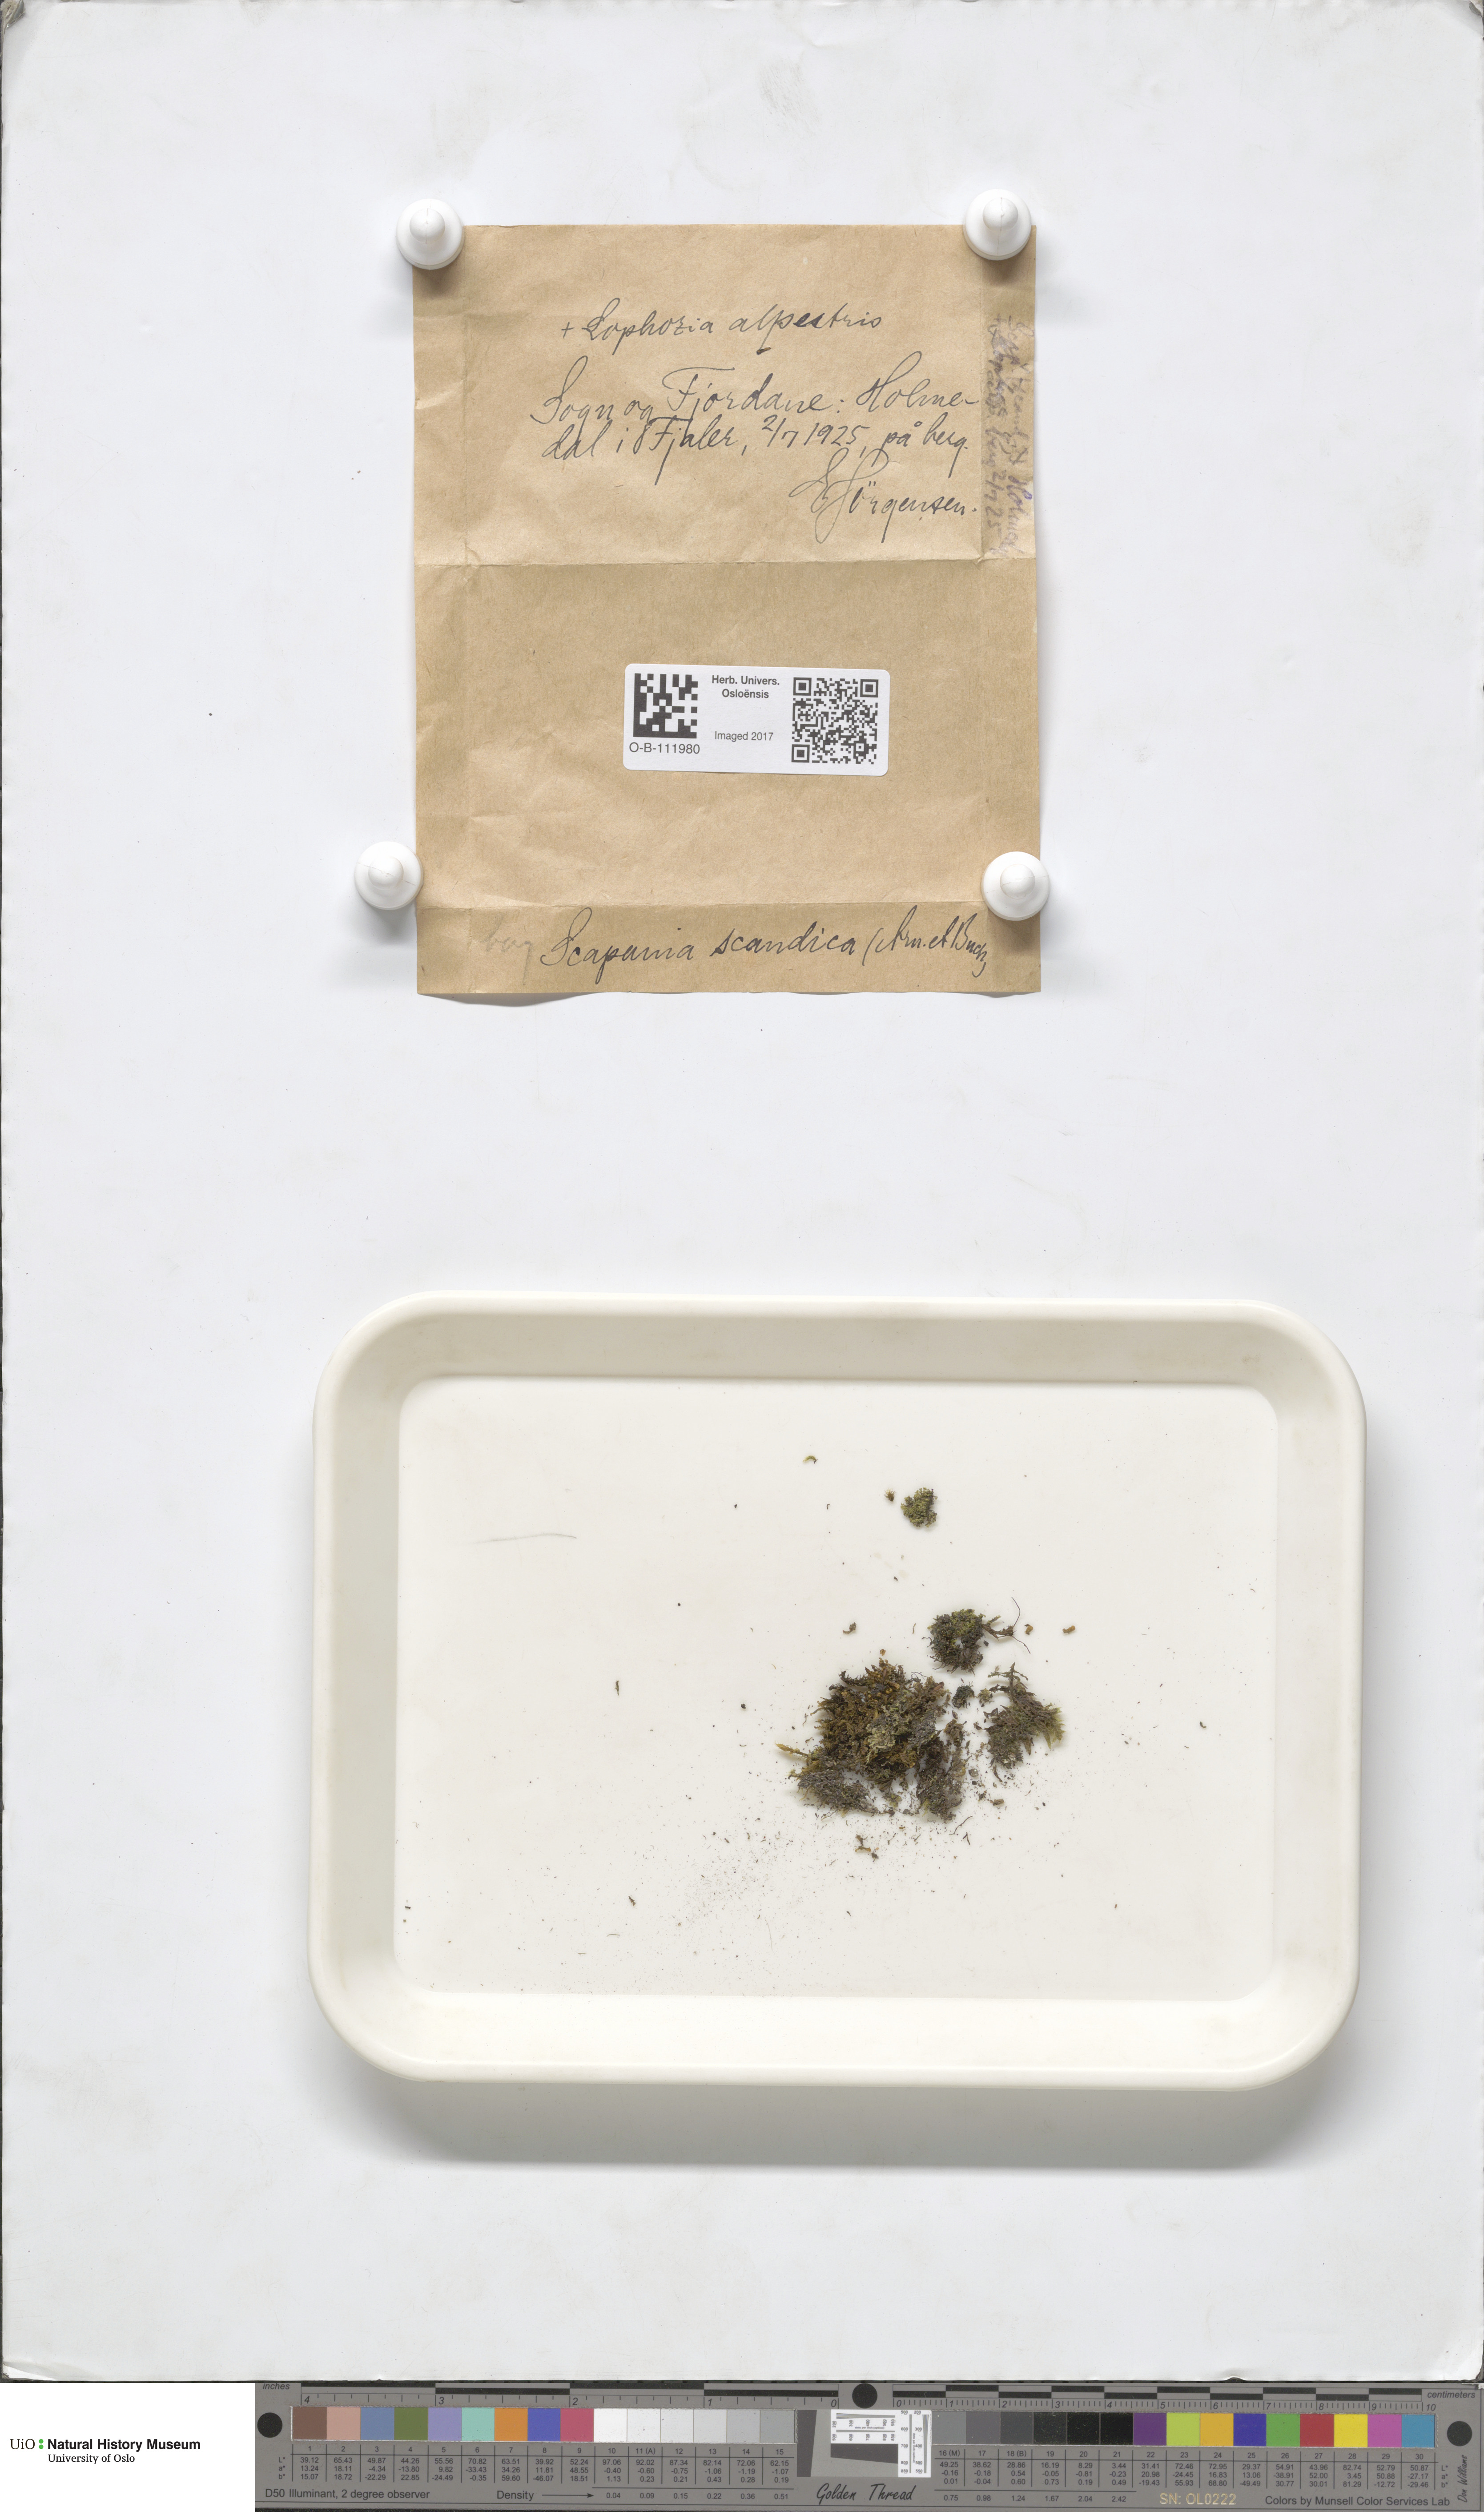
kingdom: Plantae
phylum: Marchantiophyta
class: Jungermanniopsida
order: Jungermanniales
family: Scapaniaceae
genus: Scapania
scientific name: Scapania scandica
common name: Norwegian earwort
